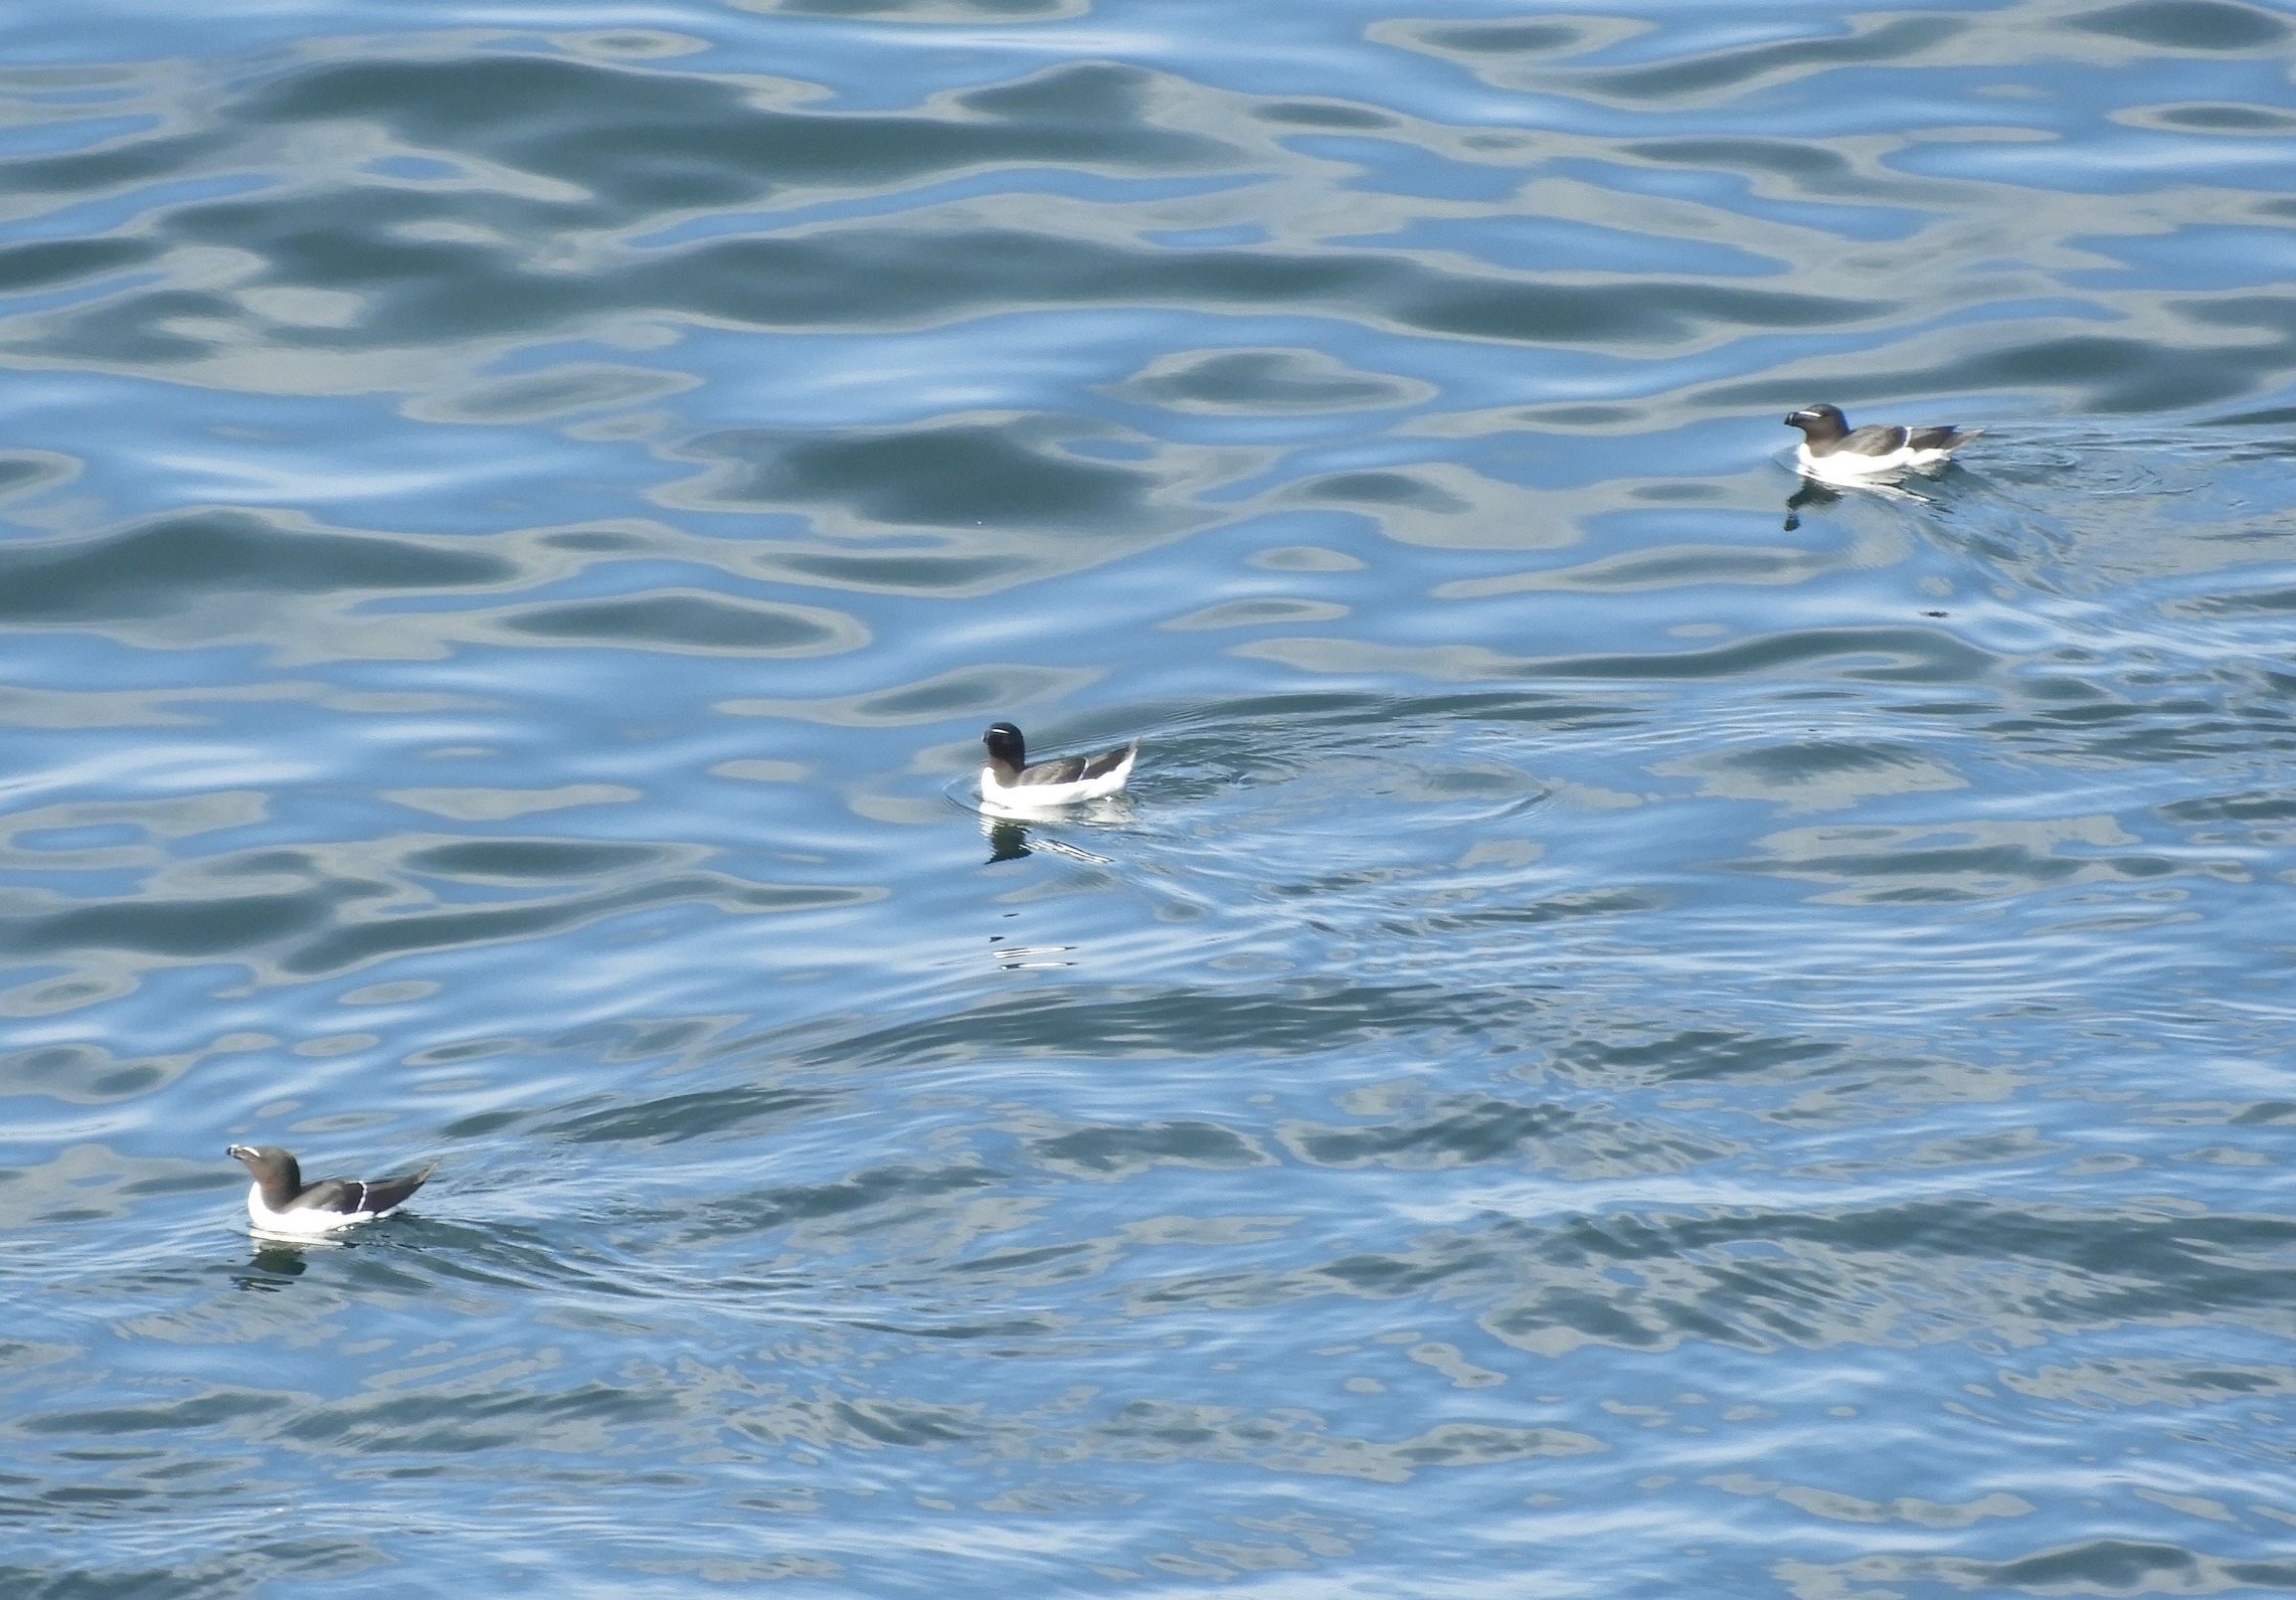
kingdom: Animalia
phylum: Chordata
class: Aves
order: Charadriiformes
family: Alcidae
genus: Alca
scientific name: Alca torda
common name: Alk
